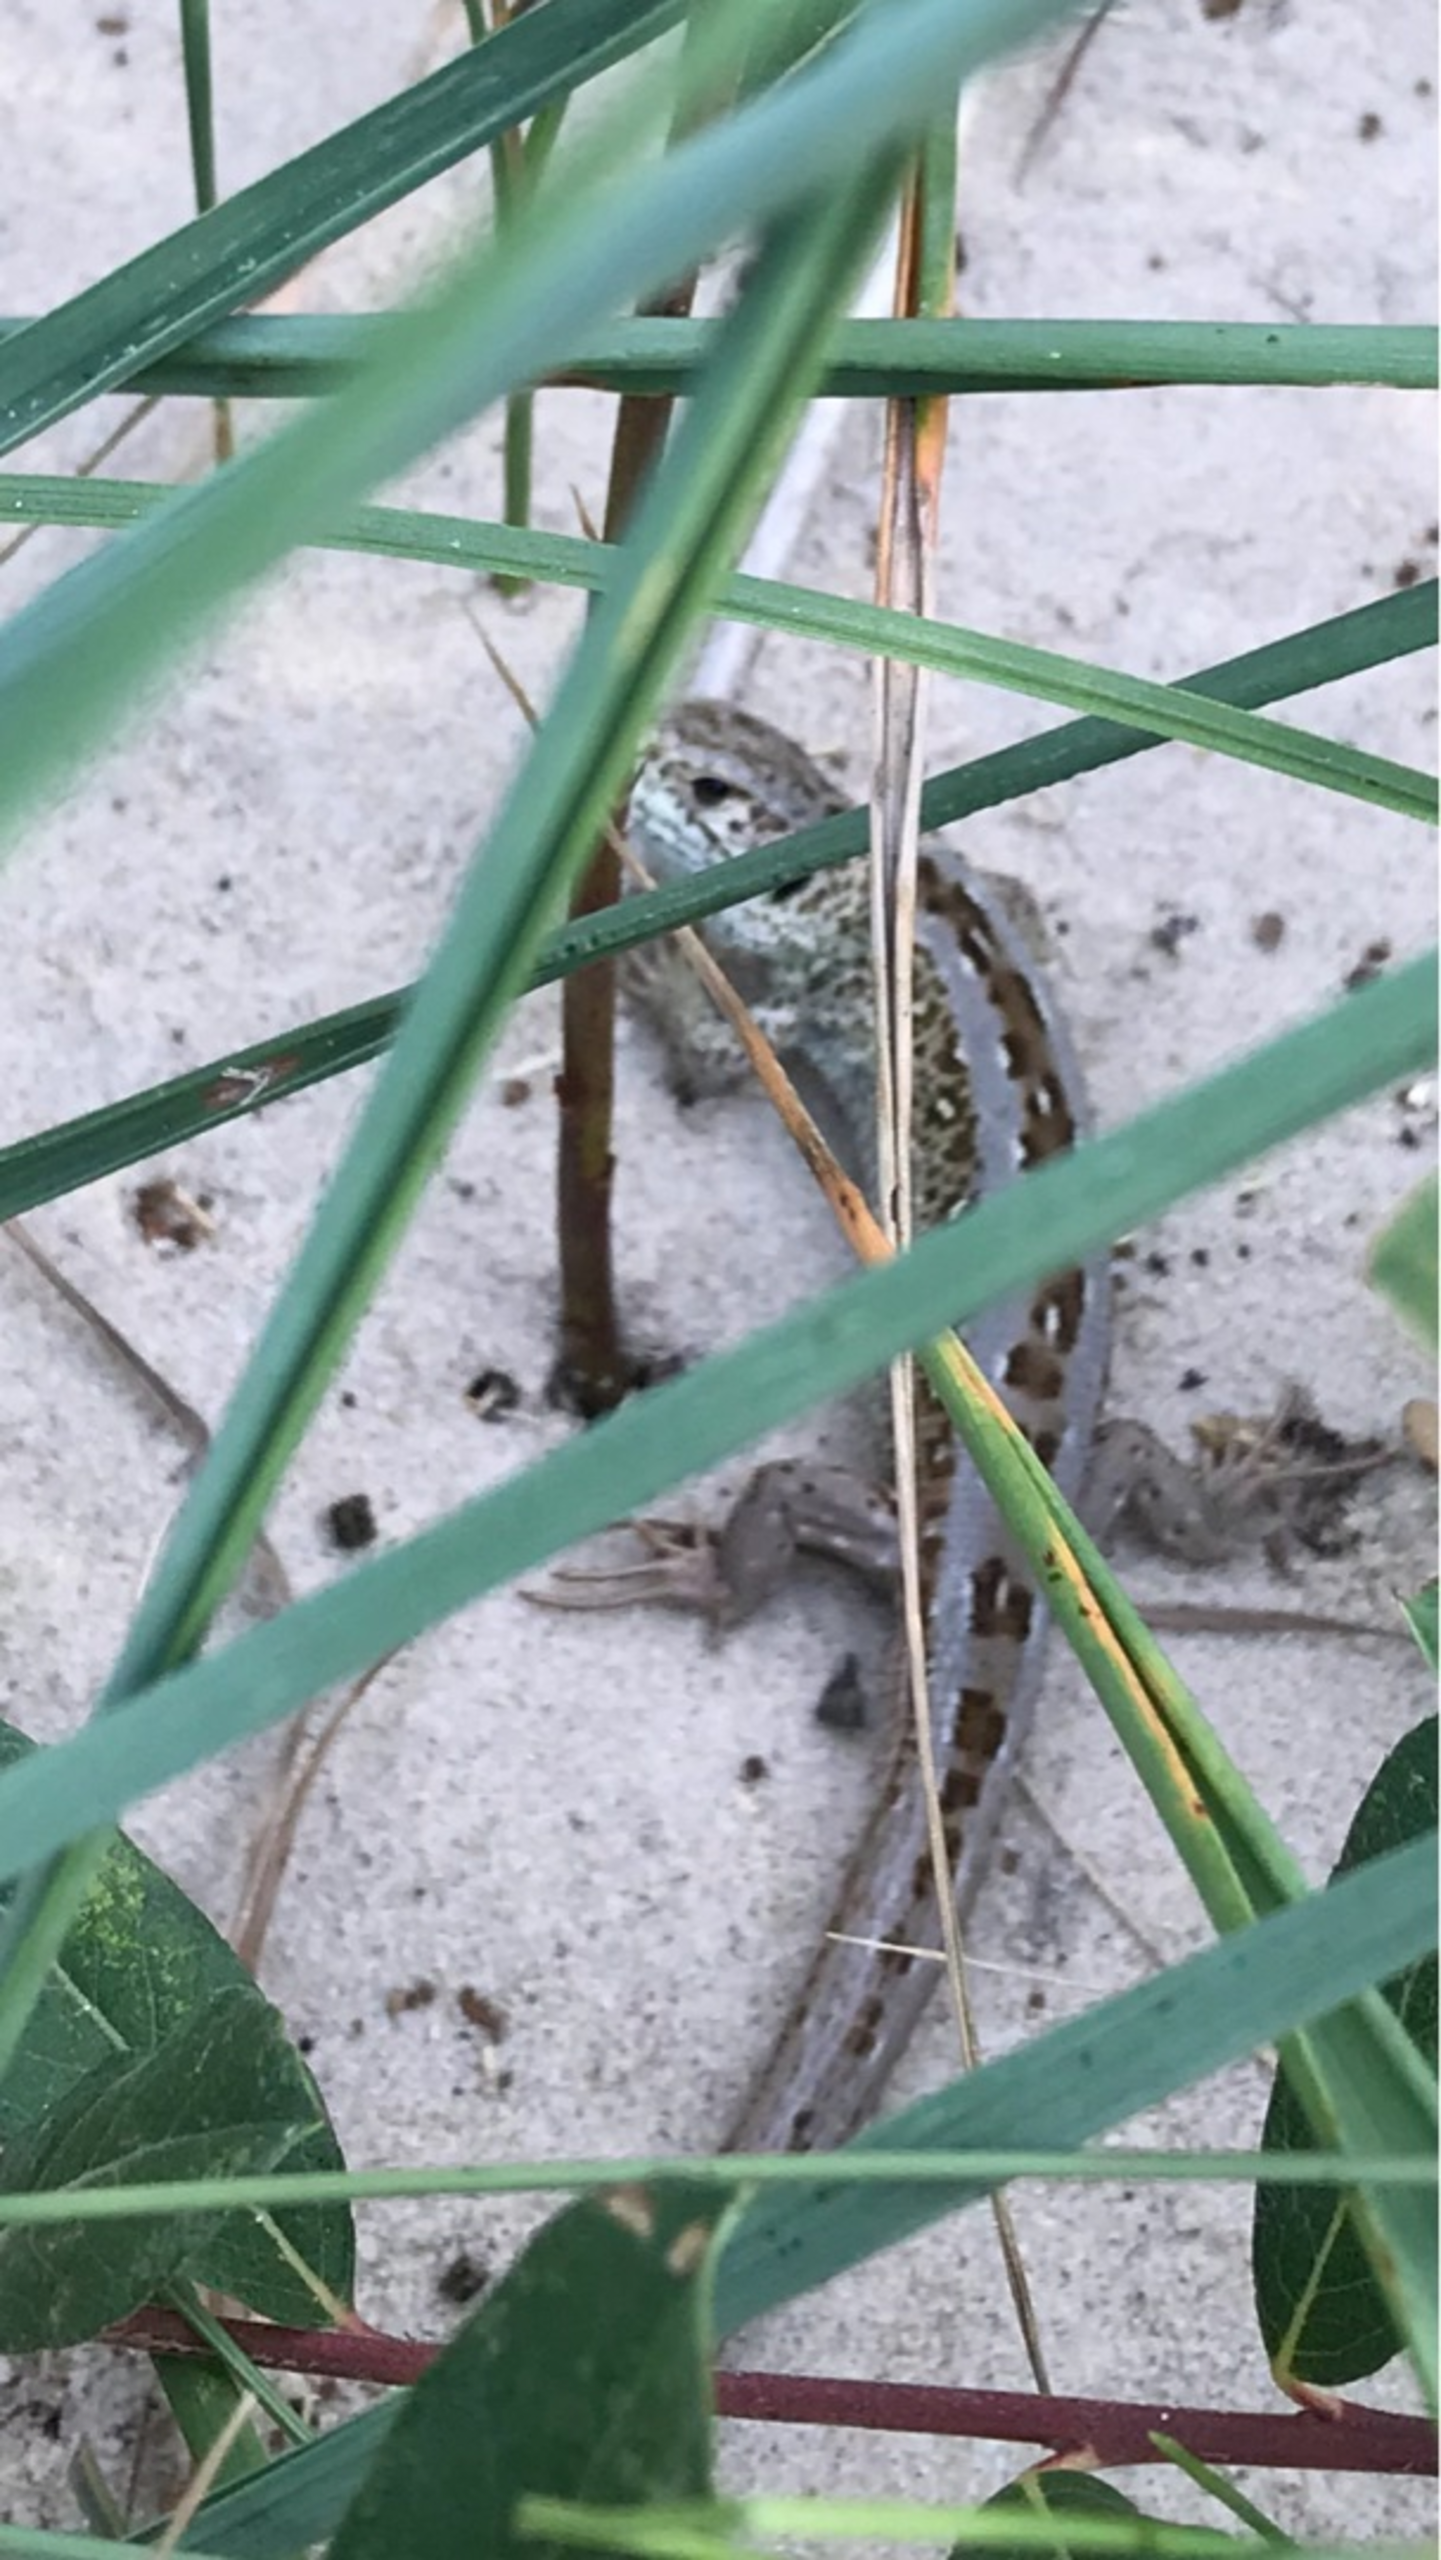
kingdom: Animalia
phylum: Chordata
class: Squamata
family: Lacertidae
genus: Lacerta
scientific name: Lacerta agilis
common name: Markfirben
